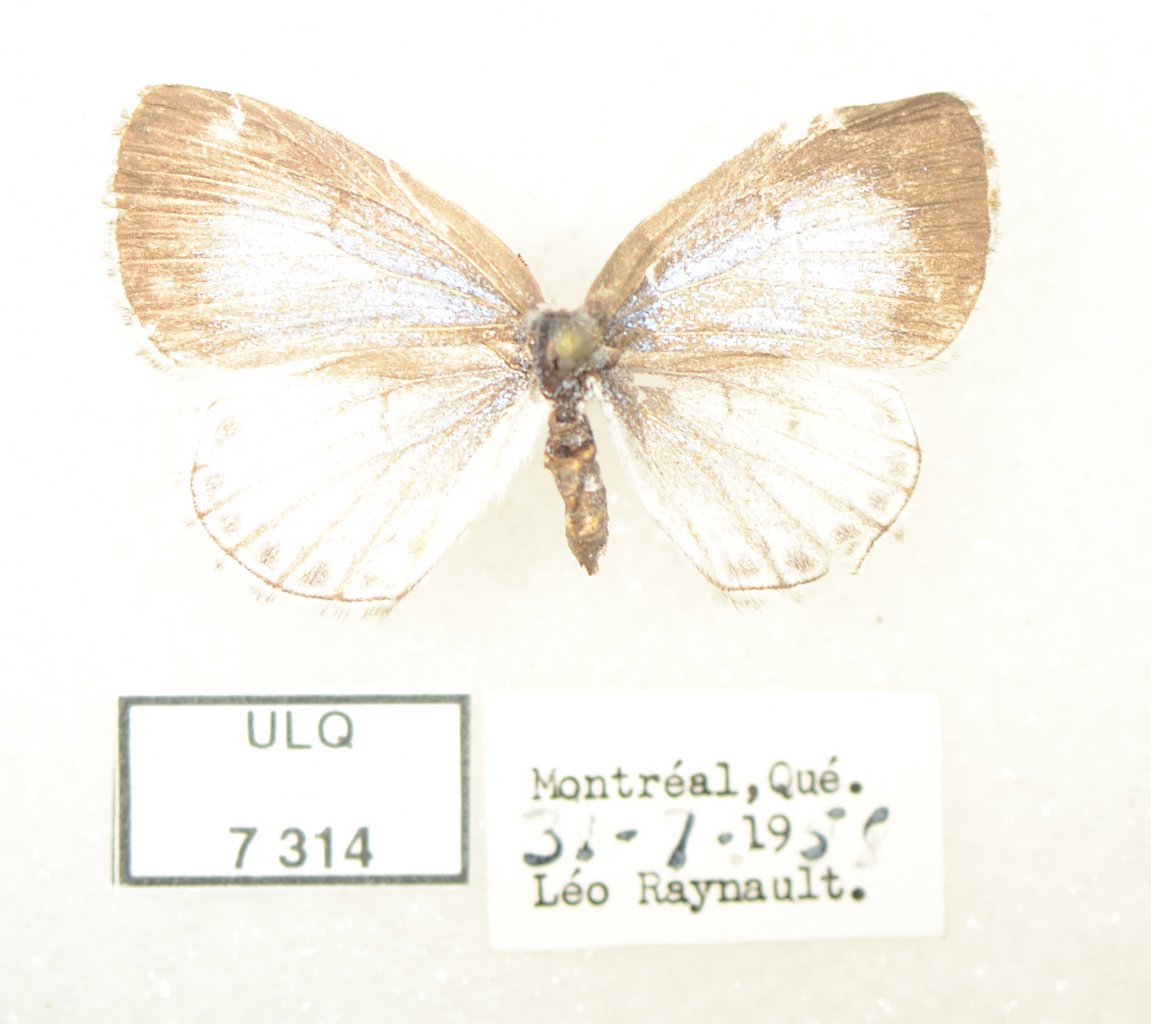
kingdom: Animalia
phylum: Arthropoda
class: Insecta
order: Lepidoptera
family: Lycaenidae
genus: Celastrina
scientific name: Celastrina lucia
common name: Northern Spring Azure
